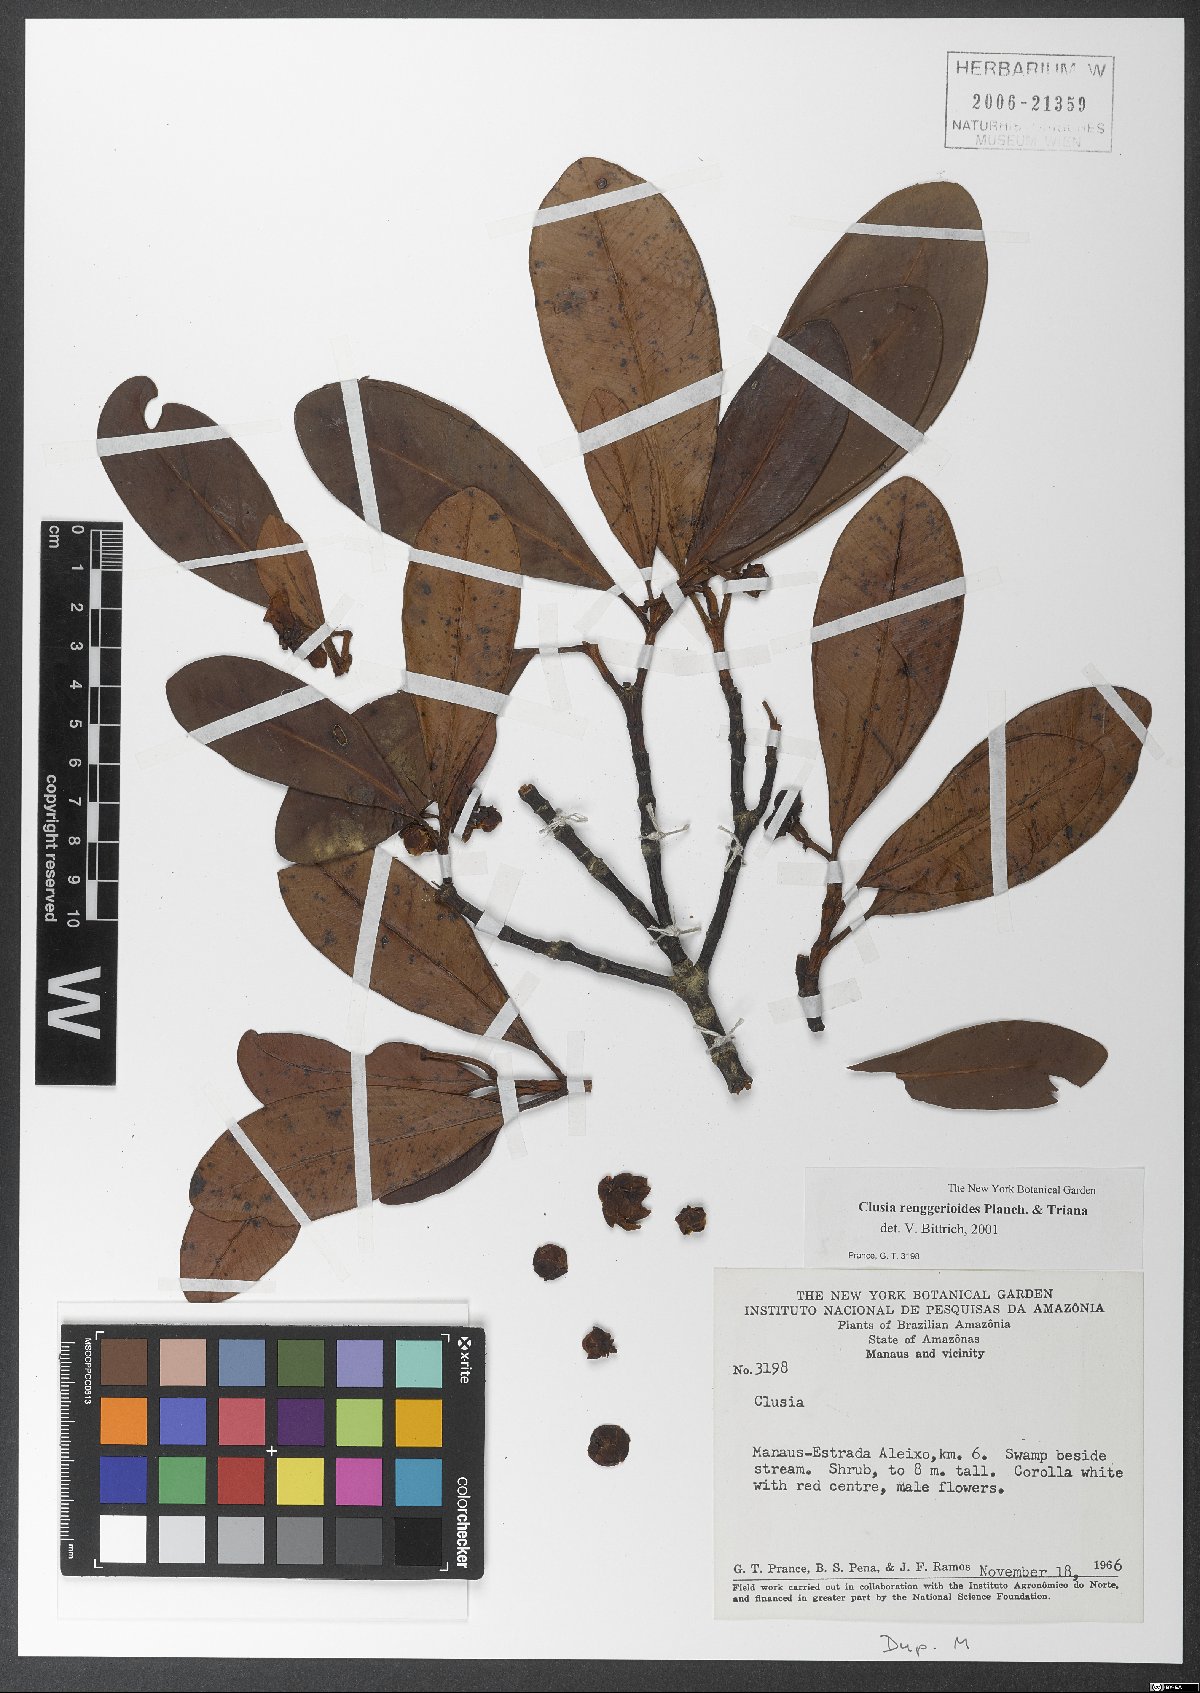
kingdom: Plantae
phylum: Tracheophyta
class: Magnoliopsida
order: Malpighiales
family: Clusiaceae
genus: Clusia
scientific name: Clusia renggerioides
